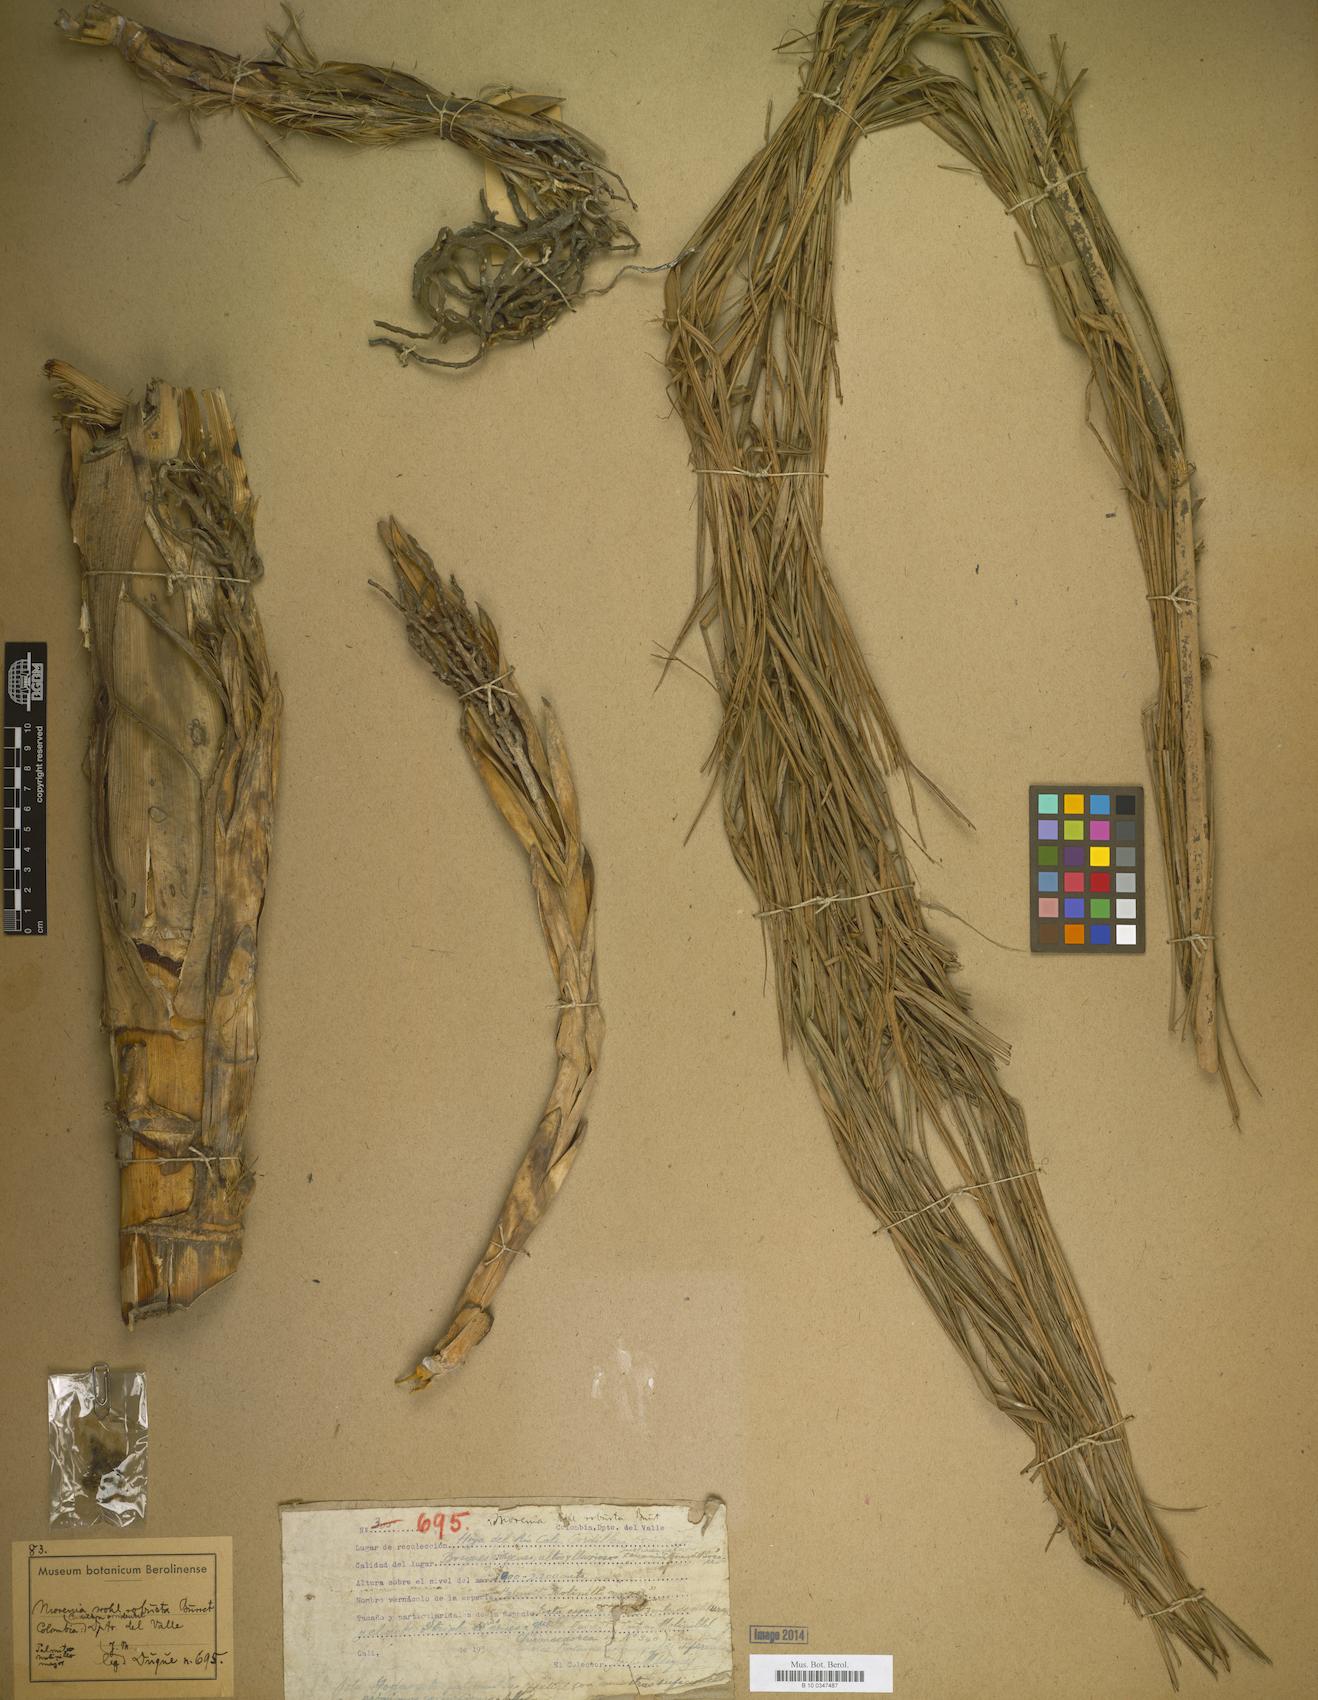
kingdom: Plantae
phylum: Tracheophyta
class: Liliopsida
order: Arecales
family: Arecaceae
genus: Chamaedorea
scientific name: Chamaedorea linearis
